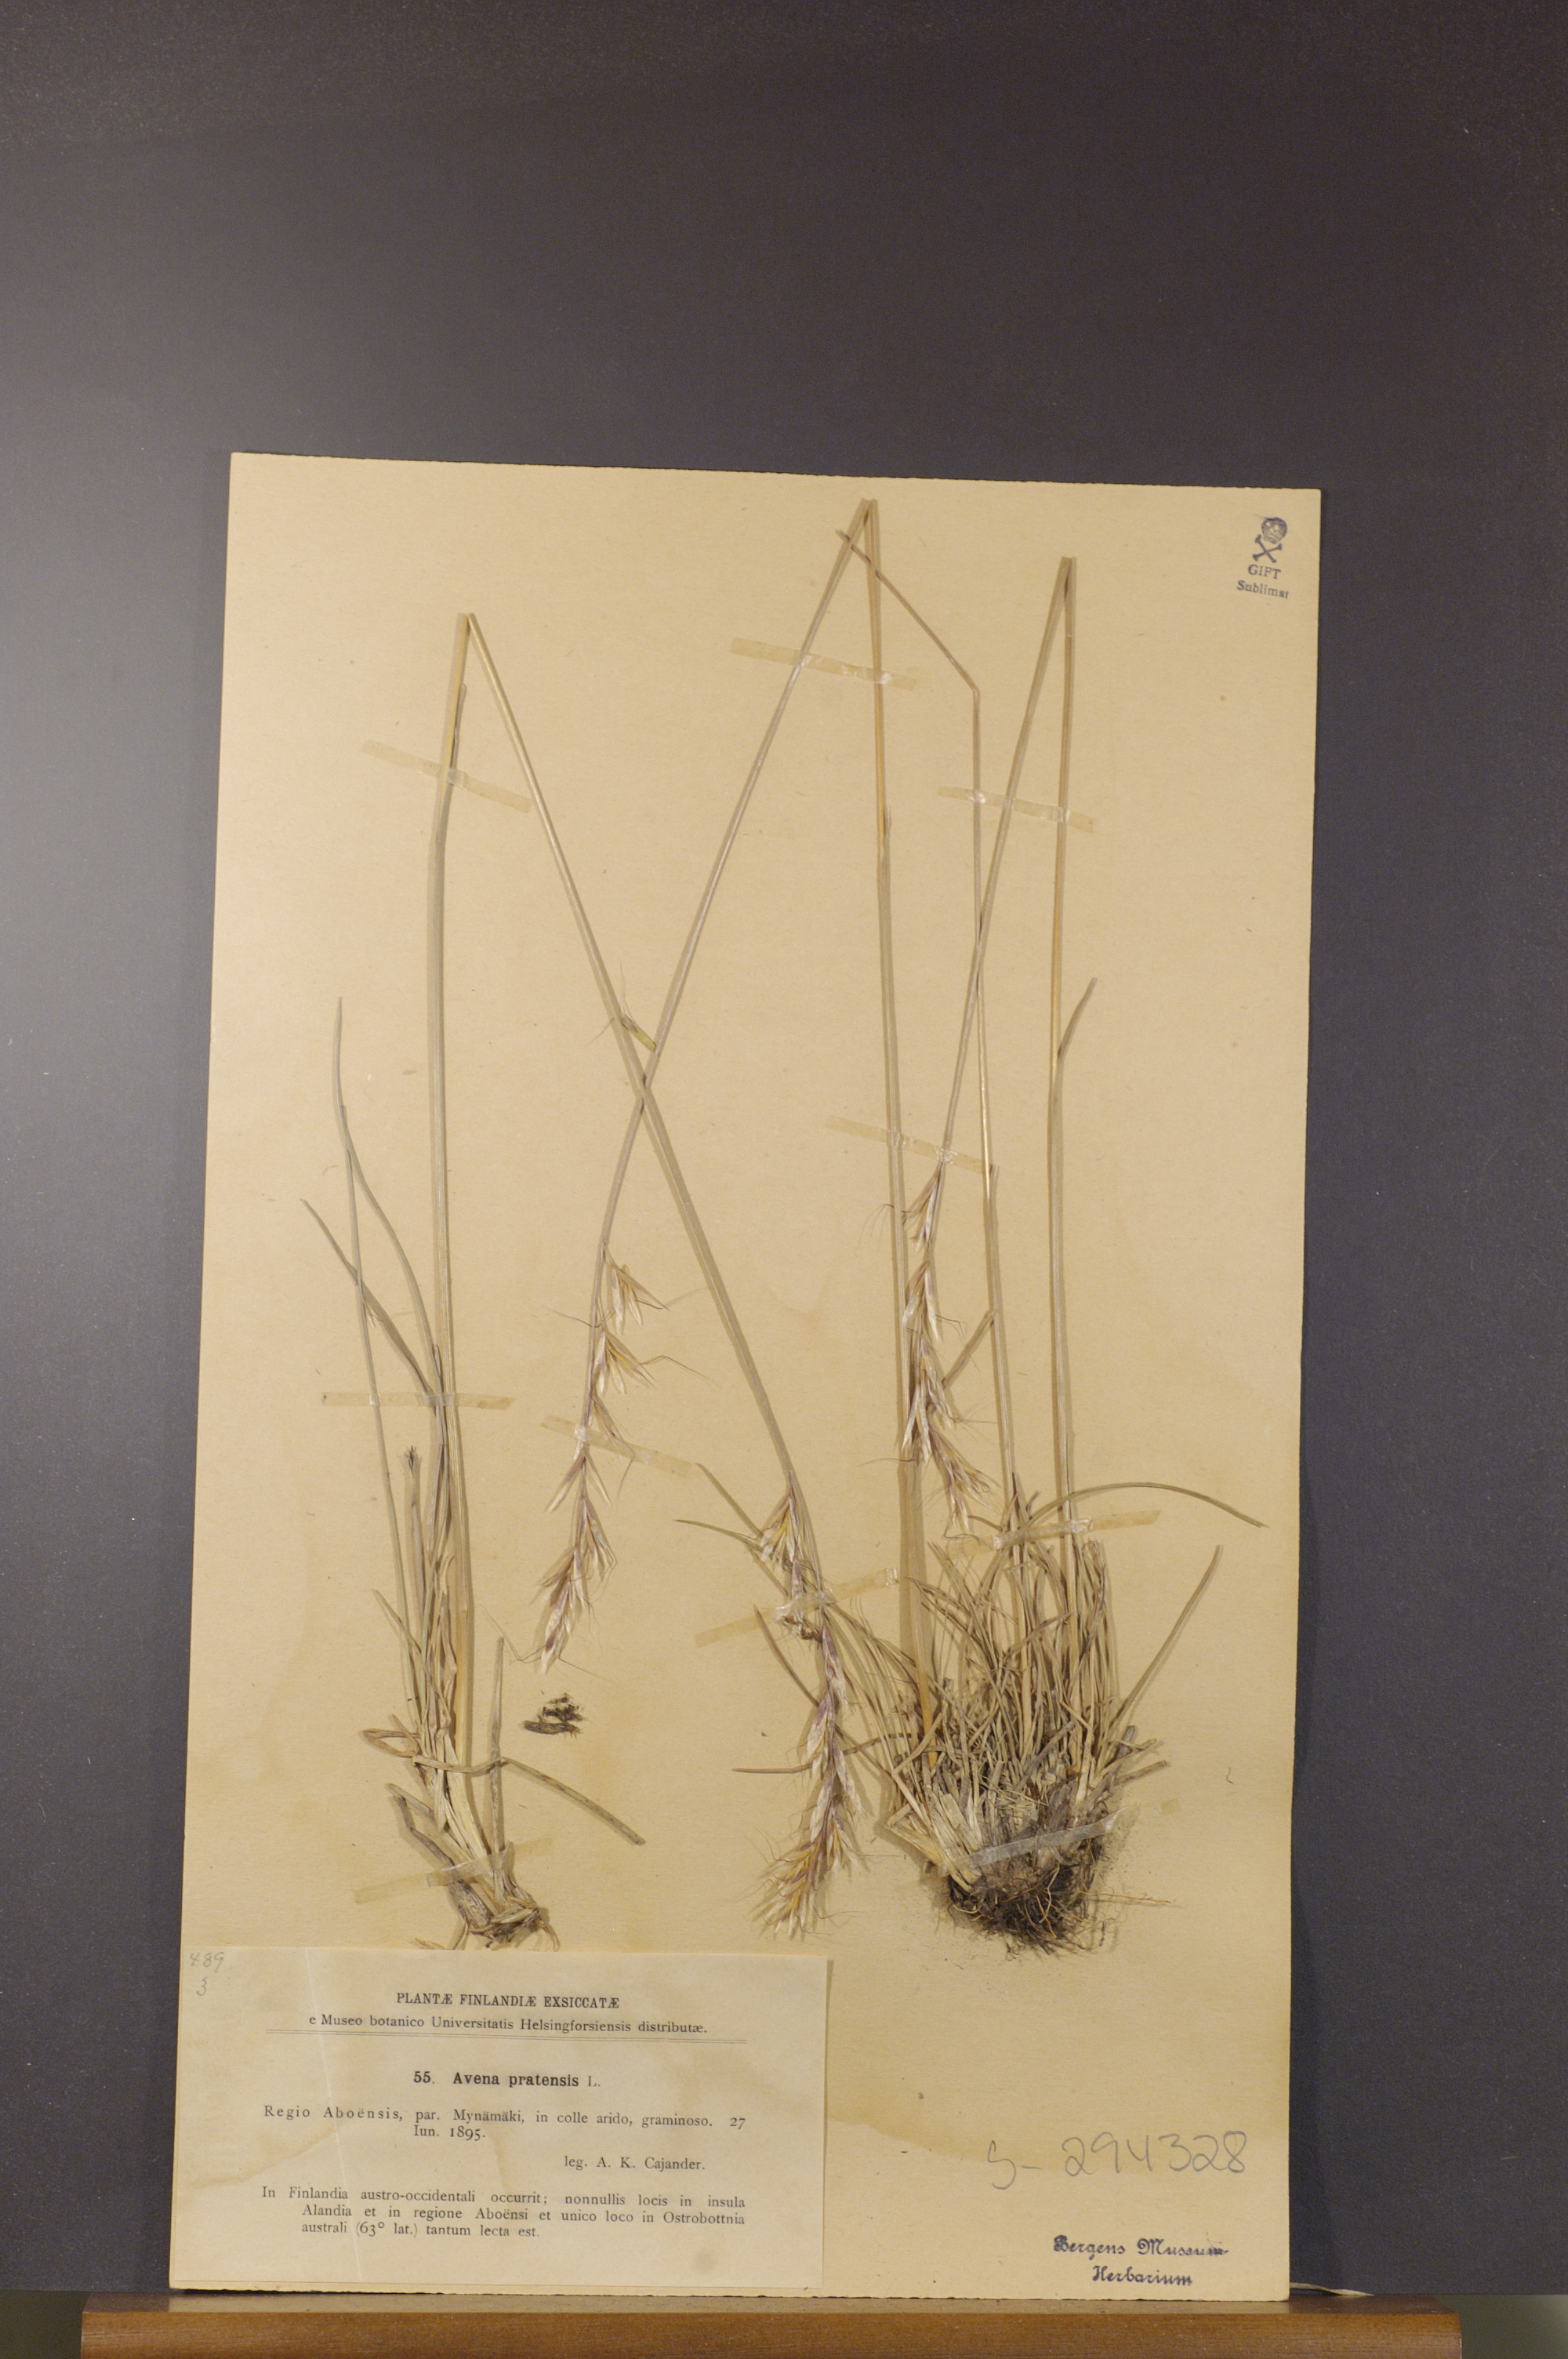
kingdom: Plantae
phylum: Tracheophyta
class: Liliopsida
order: Poales
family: Poaceae
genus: Helictochloa
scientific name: Helictochloa pratensis
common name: Meadow oat grass
